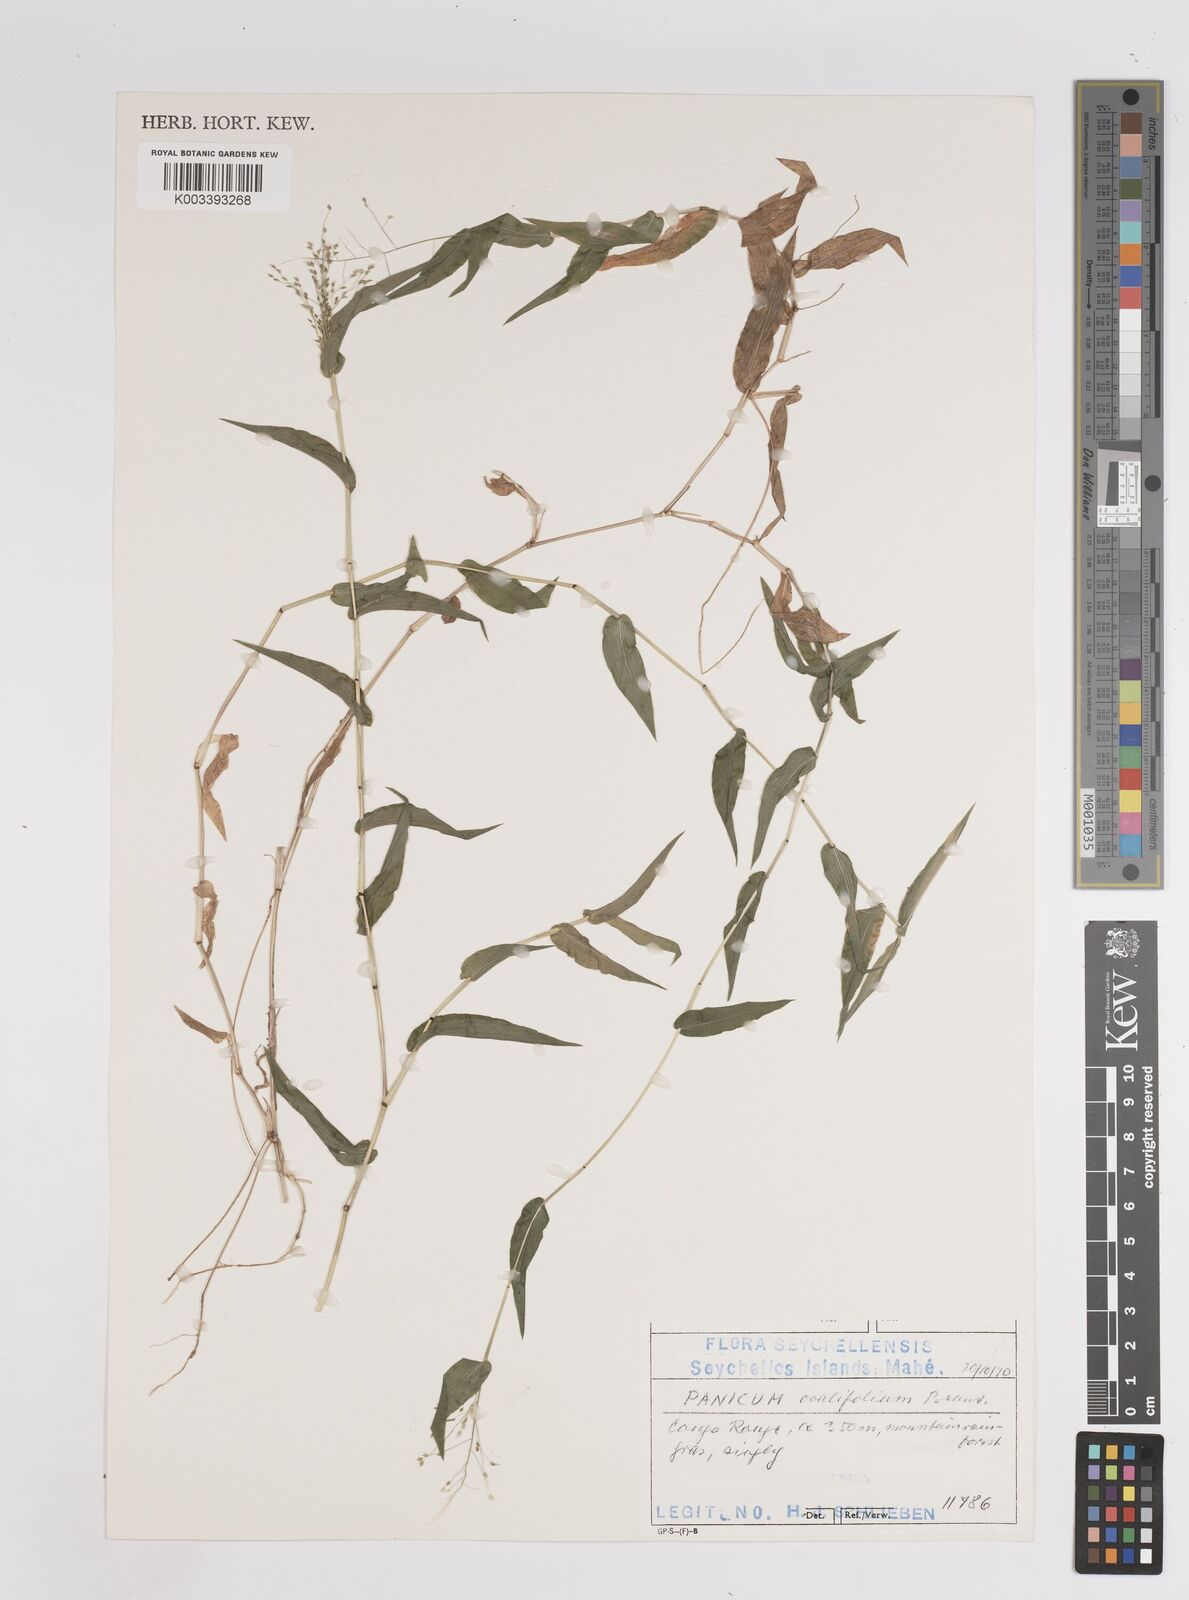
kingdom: Plantae
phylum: Tracheophyta
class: Liliopsida
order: Poales
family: Poaceae
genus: Panicum
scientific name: Panicum brevifolium
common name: Shortleaf panic grass
